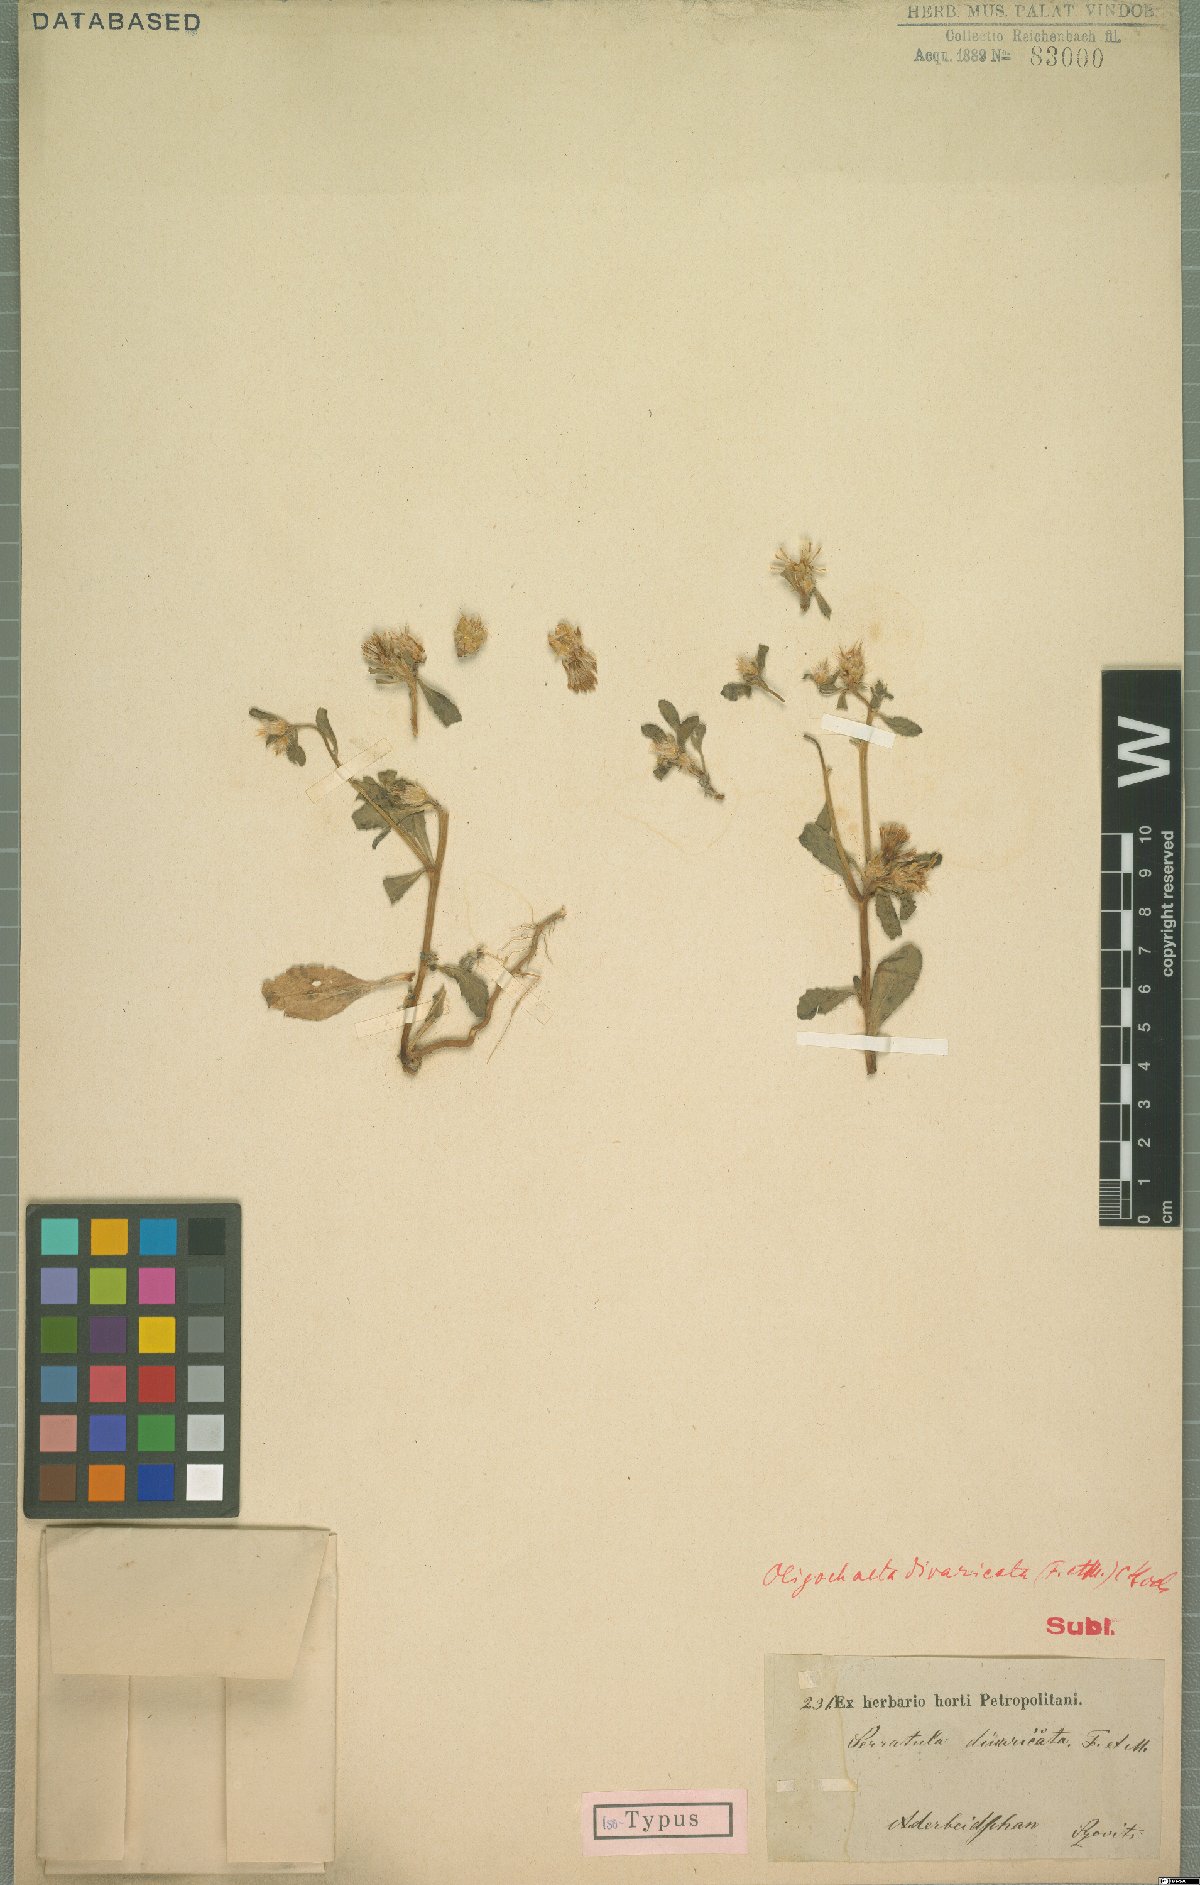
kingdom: Plantae
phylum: Tracheophyta
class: Magnoliopsida
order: Asterales
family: Asteraceae
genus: Oligochaeta
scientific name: Oligochaeta divaricata
